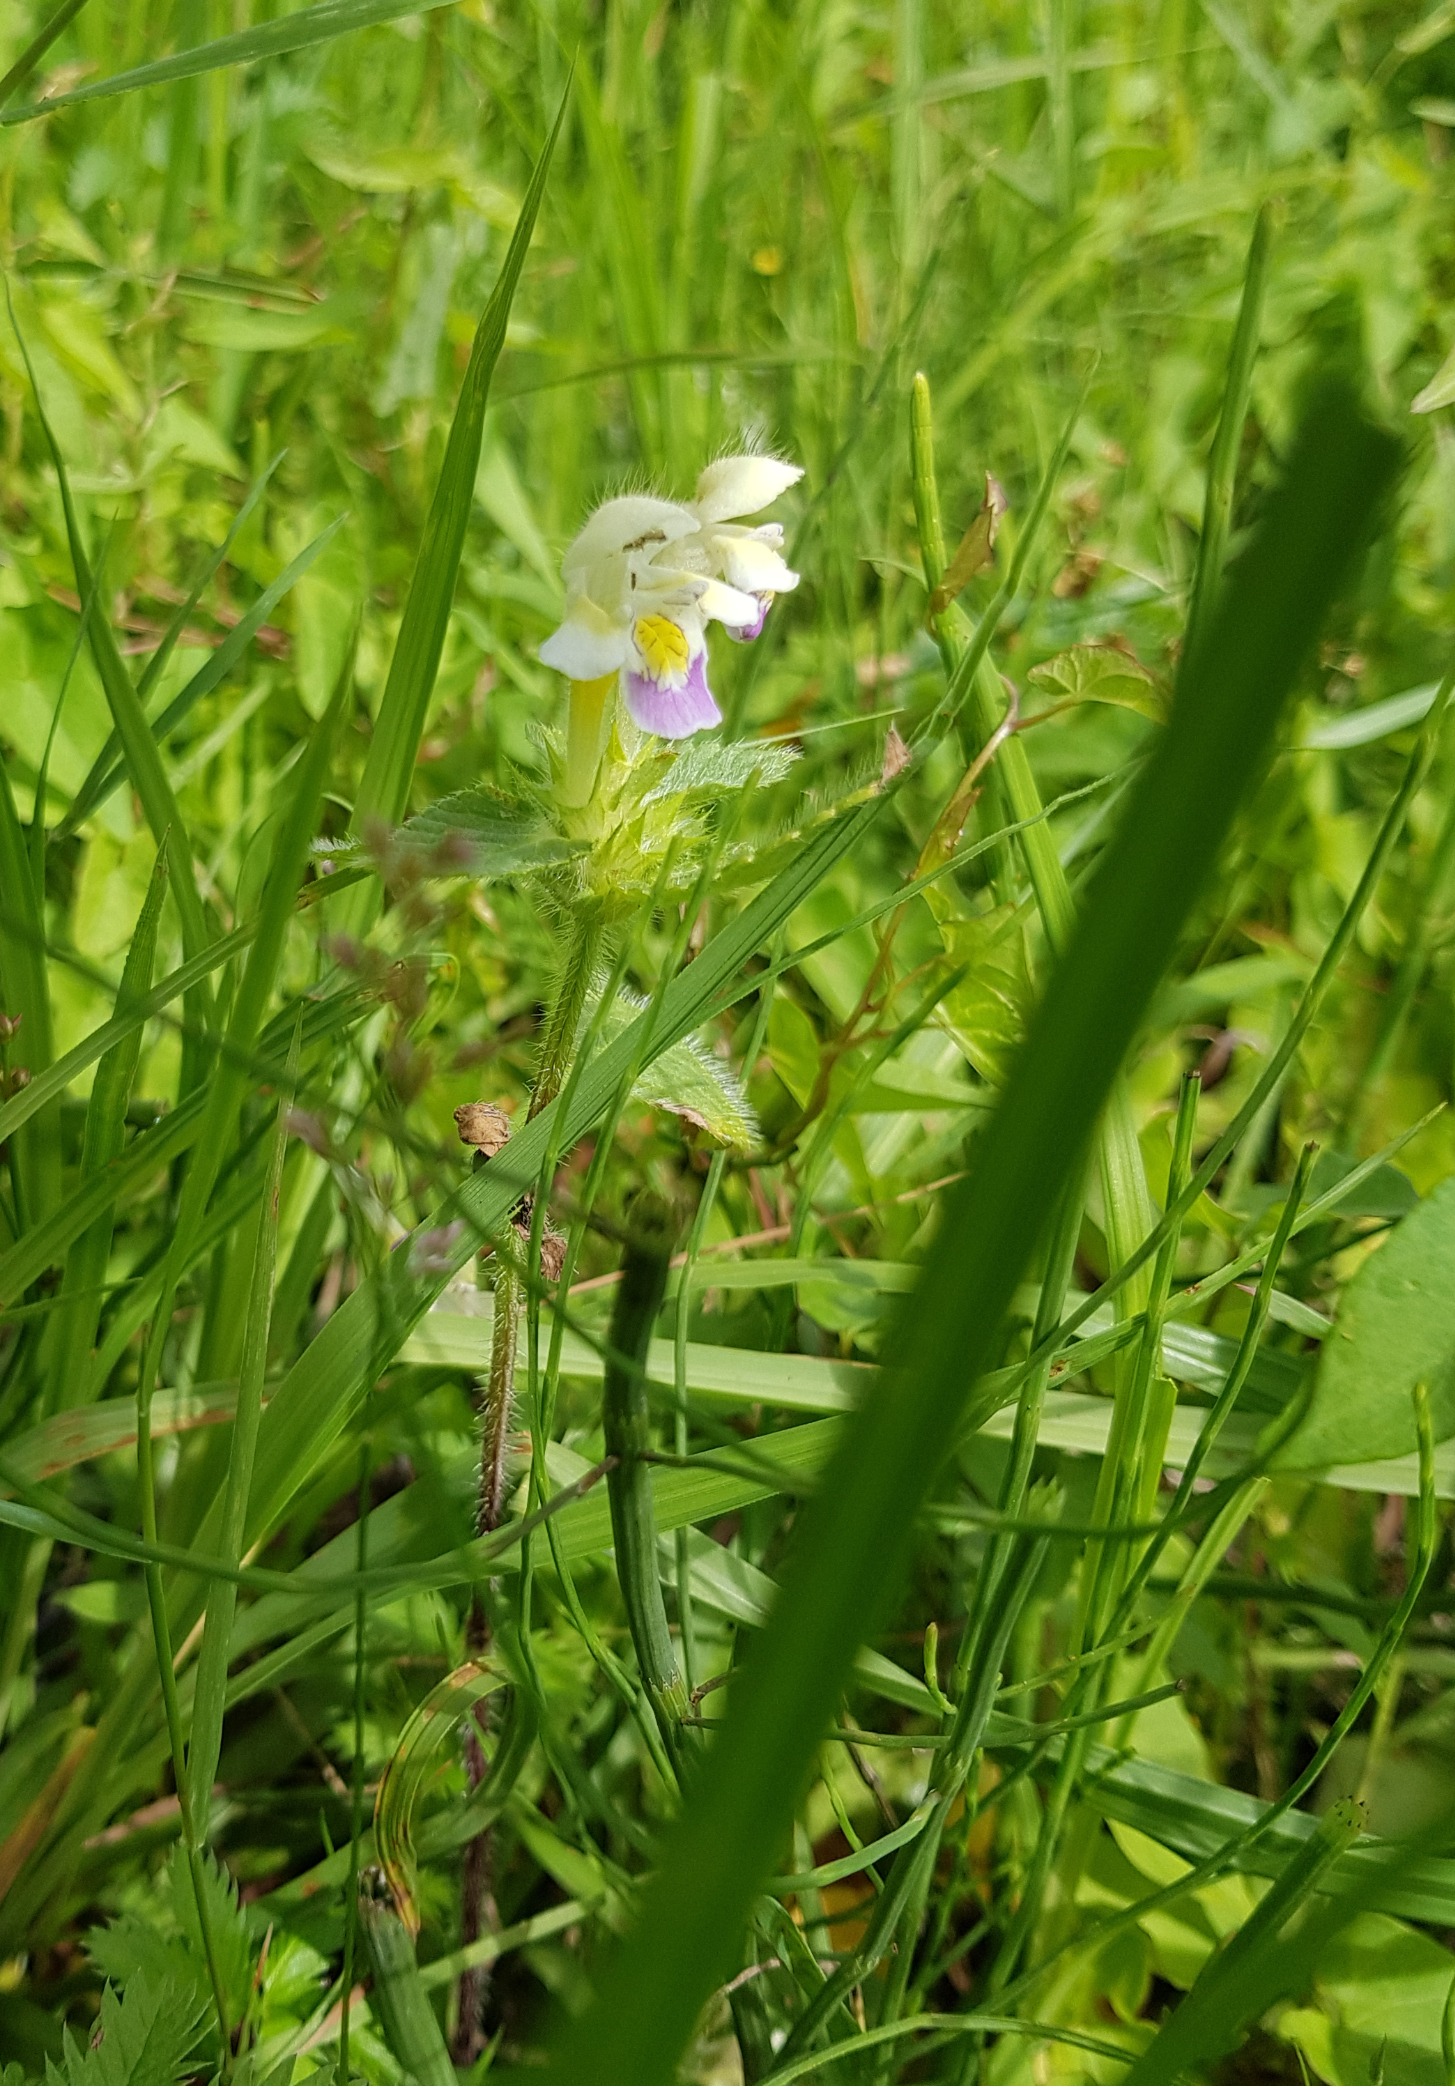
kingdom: Plantae
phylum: Tracheophyta
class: Magnoliopsida
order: Lamiales
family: Lamiaceae
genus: Galeopsis
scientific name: Galeopsis speciosa
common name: Hamp-hanekro
